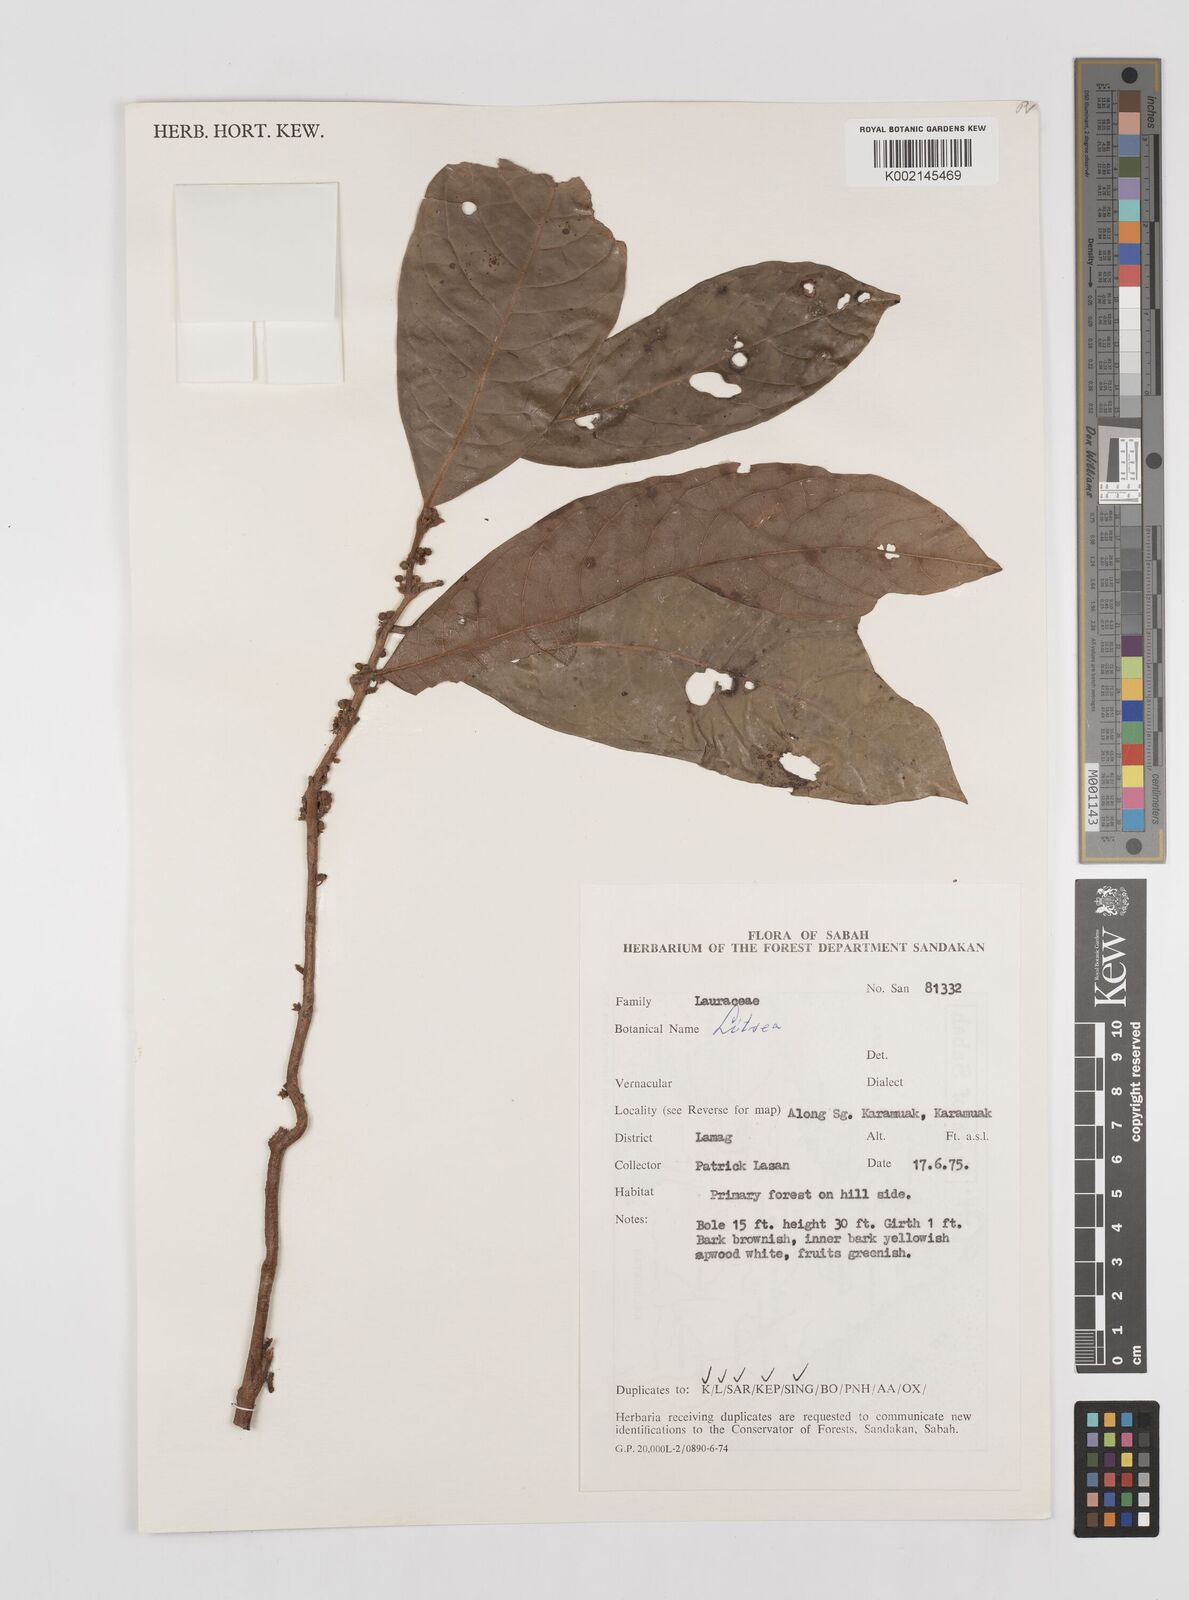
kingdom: Plantae
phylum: Tracheophyta
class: Magnoliopsida
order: Laurales
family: Lauraceae
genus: Litsea
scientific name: Litsea
